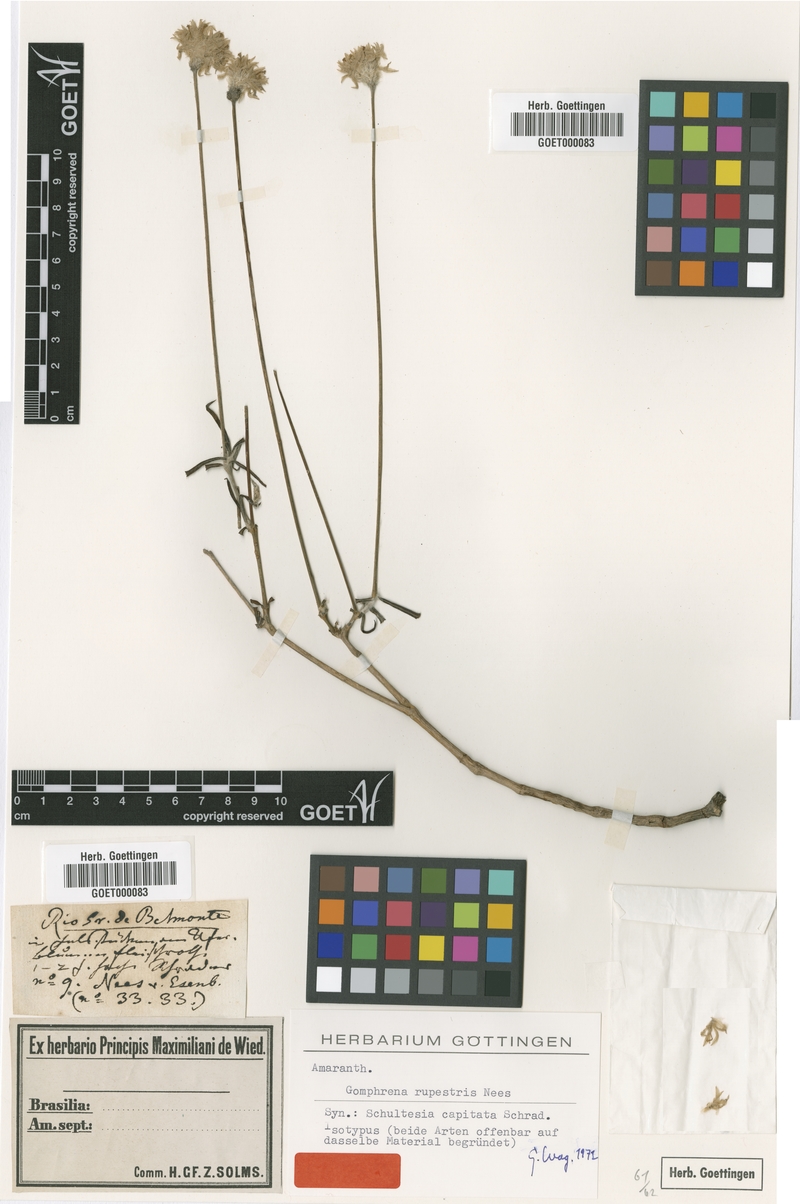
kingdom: Plantae
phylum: Tracheophyta
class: Magnoliopsida
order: Caryophyllales
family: Amaranthaceae
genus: Gomphrena
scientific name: Gomphrena rupestris
